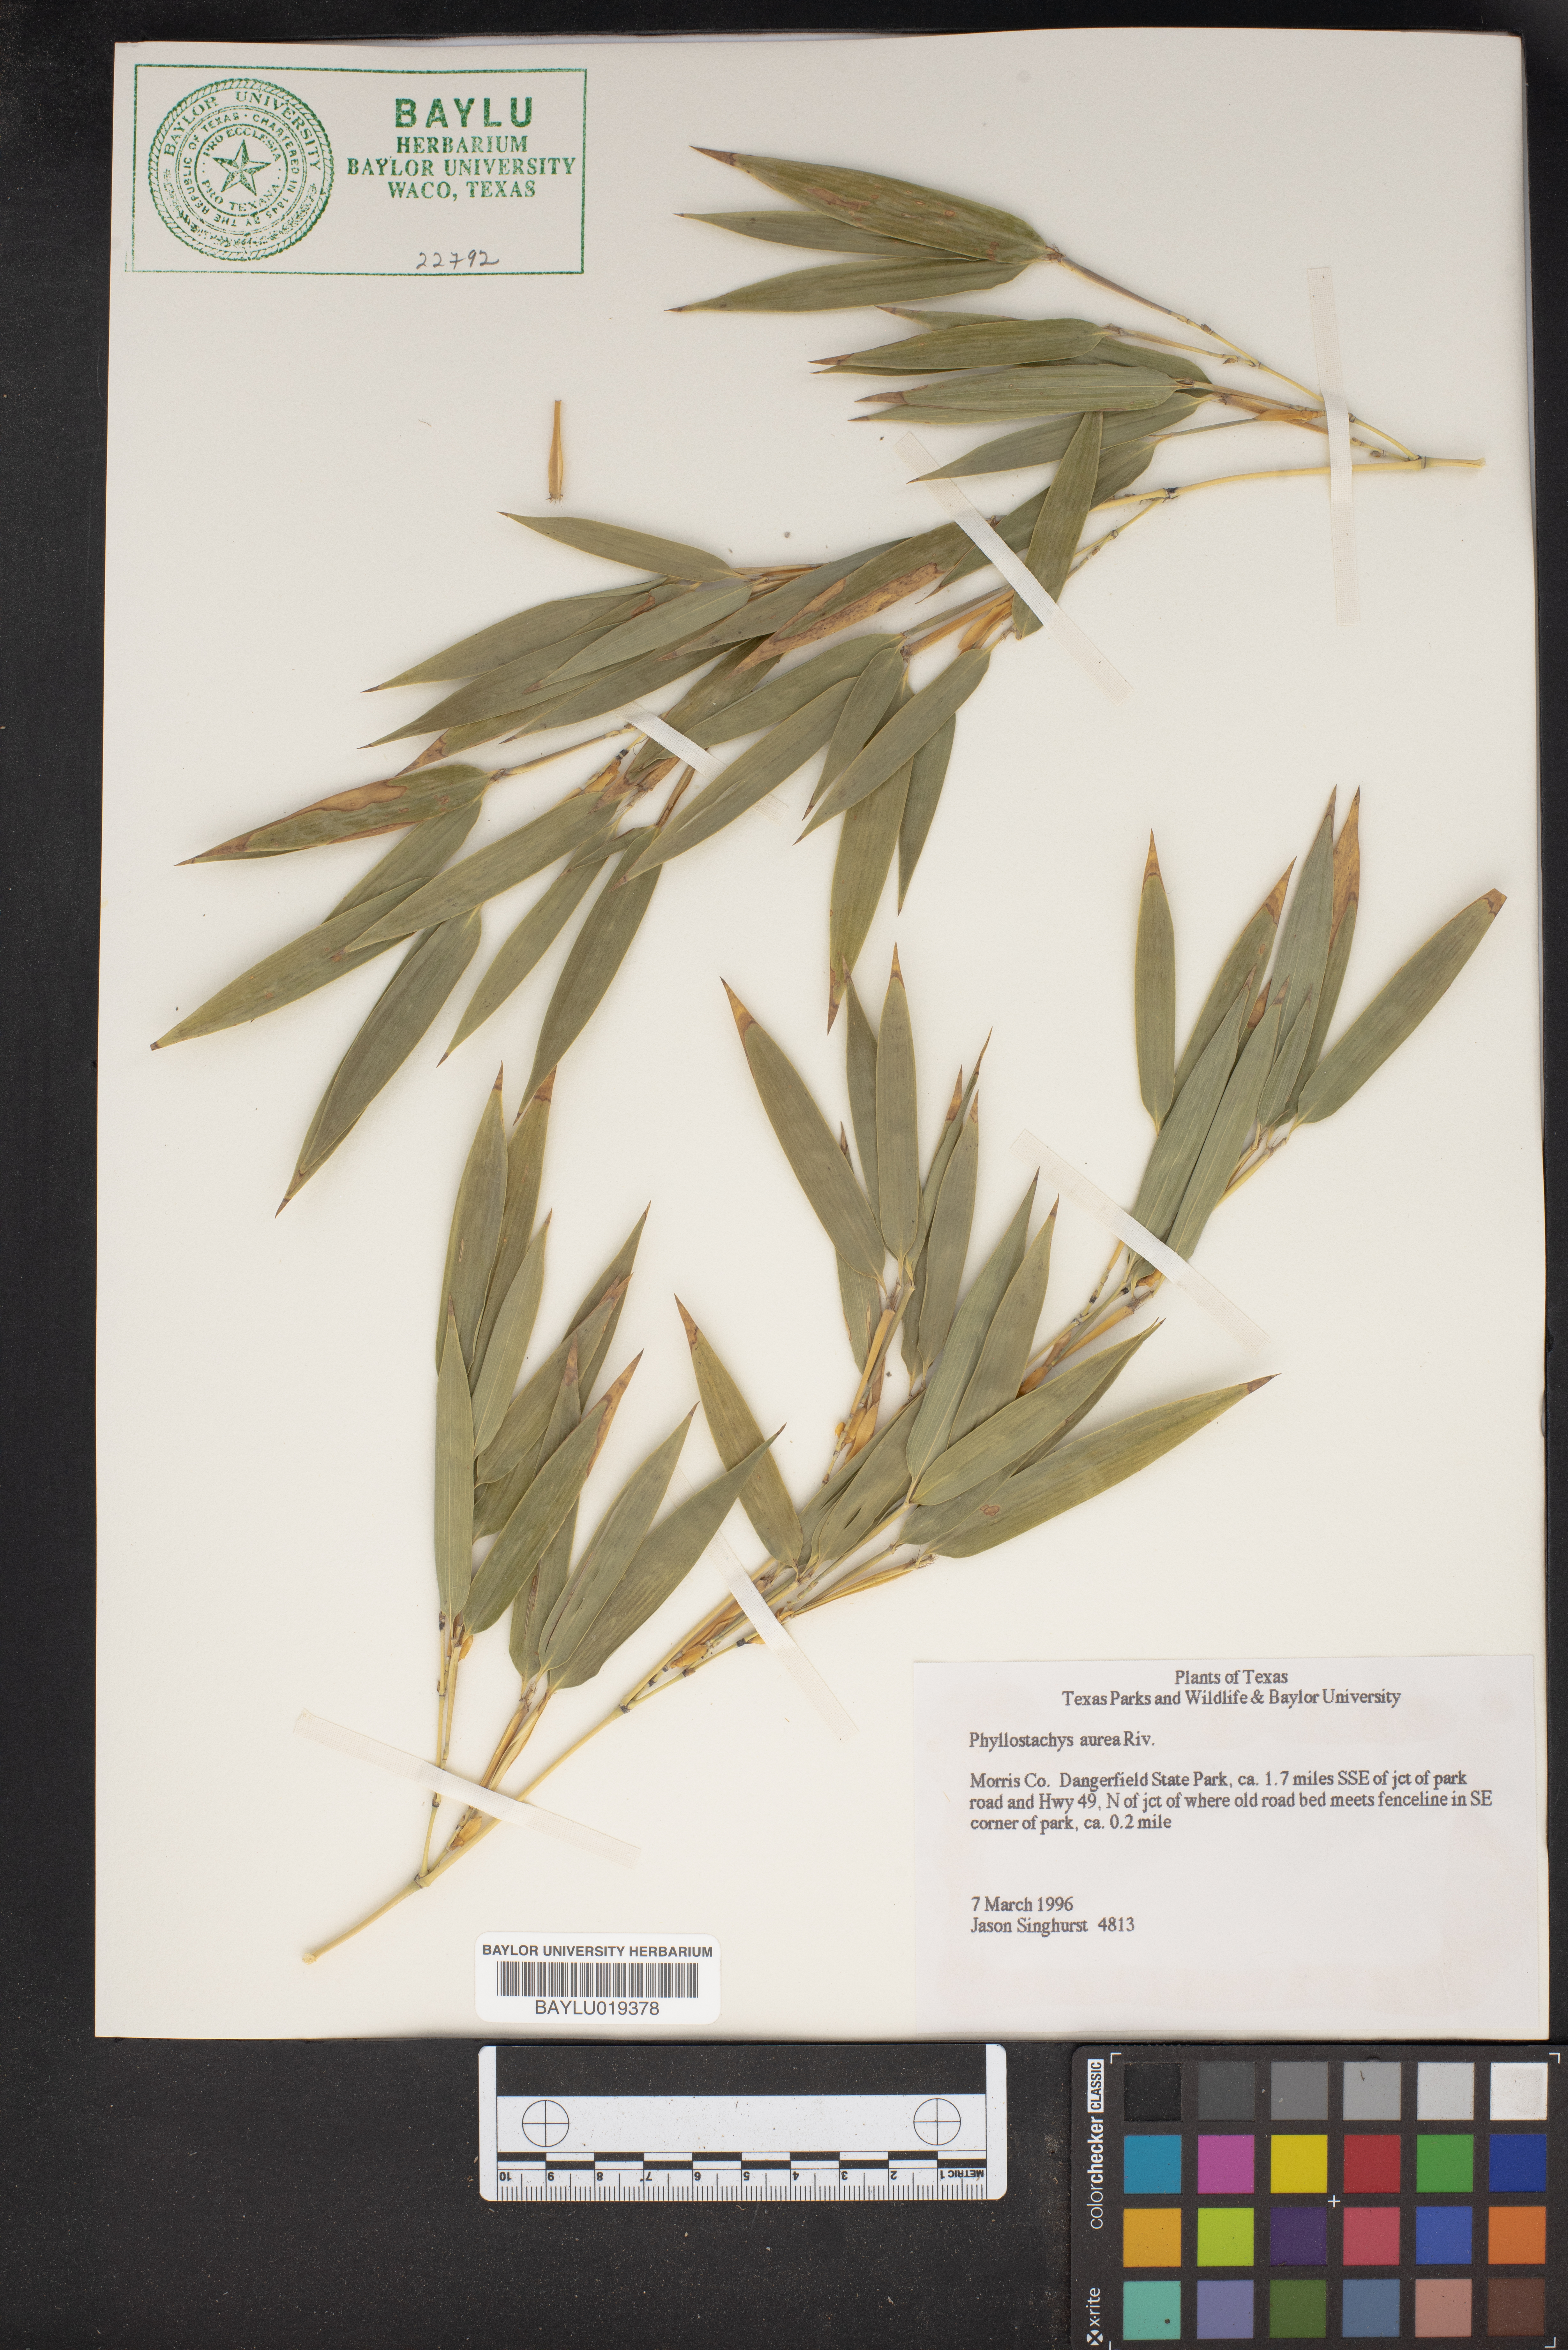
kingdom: Plantae
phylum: Tracheophyta
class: Liliopsida
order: Poales
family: Poaceae
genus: Phyllostachys
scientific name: Phyllostachys aurea
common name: Golden bamboo
